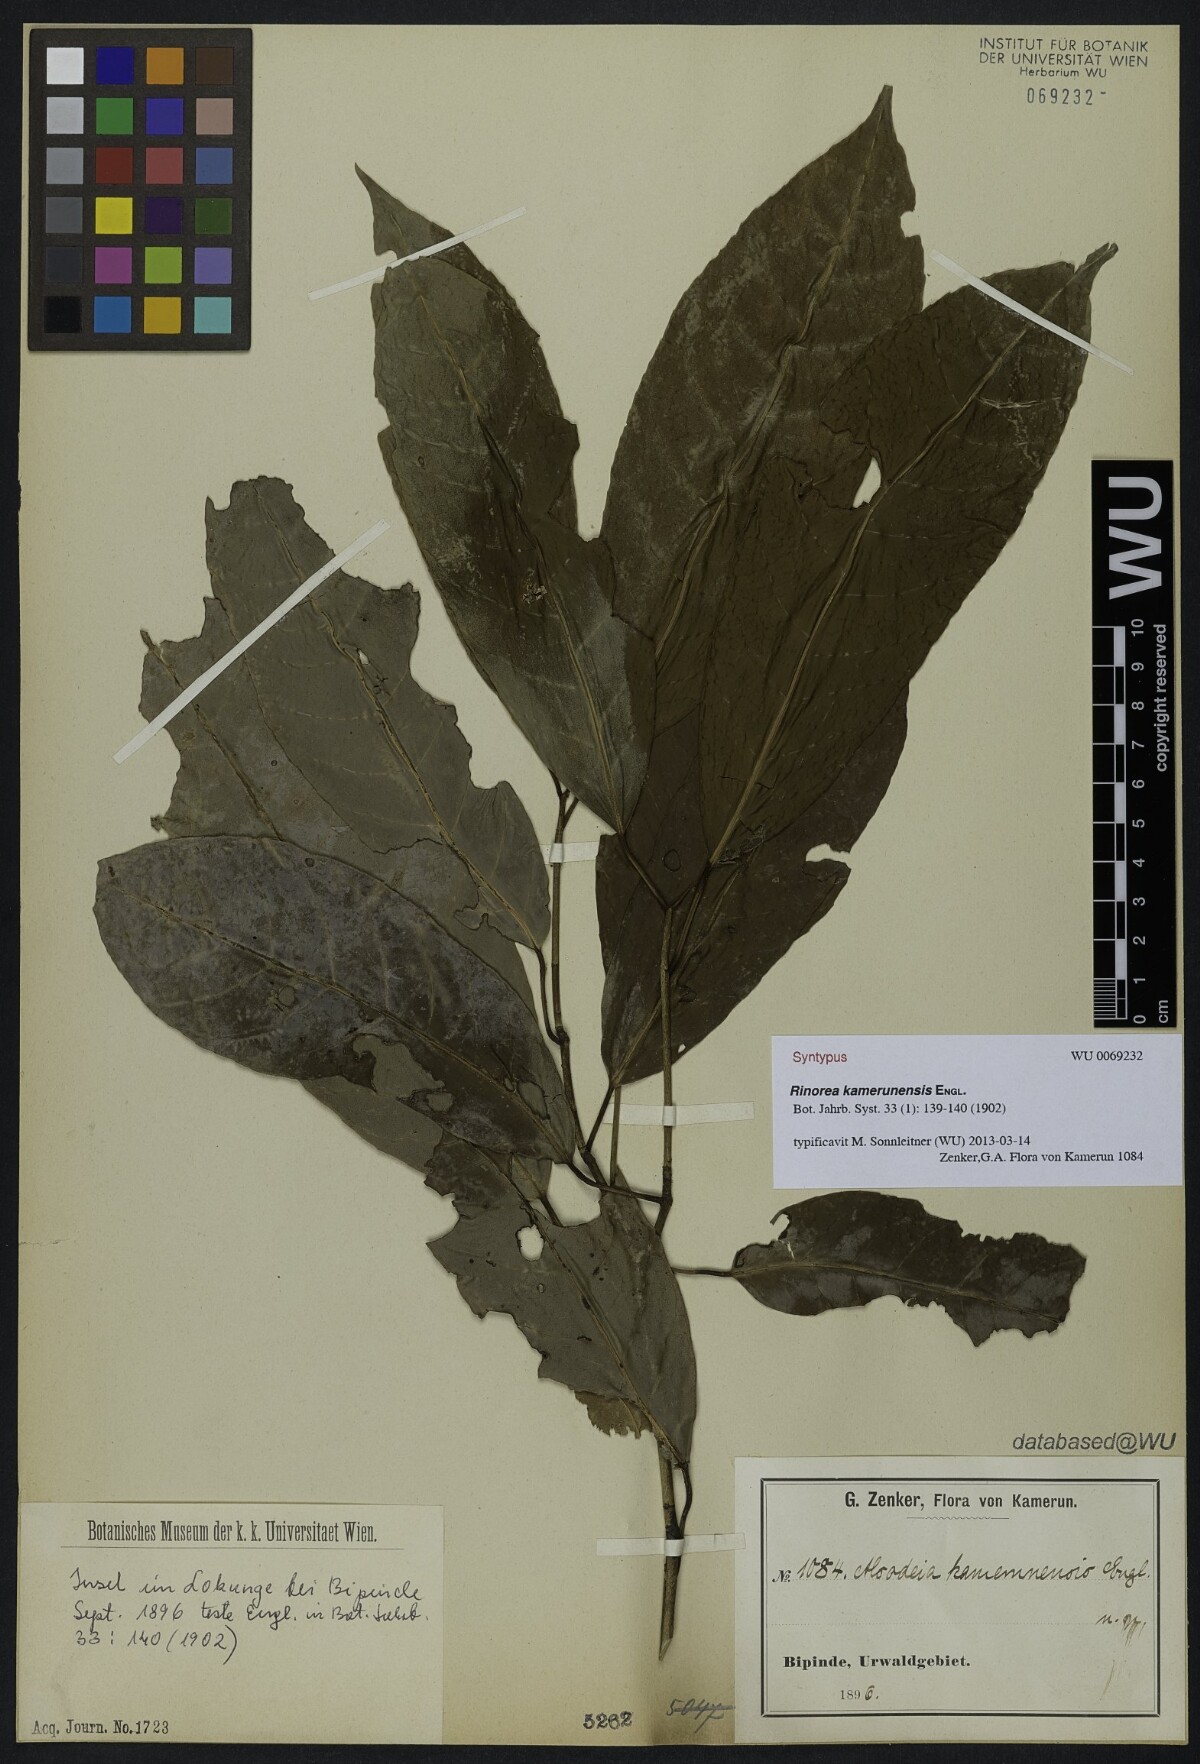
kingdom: Plantae
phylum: Tracheophyta
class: Magnoliopsida
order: Malpighiales
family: Violaceae
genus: Rinorea
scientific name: Rinorea kamerunensis
